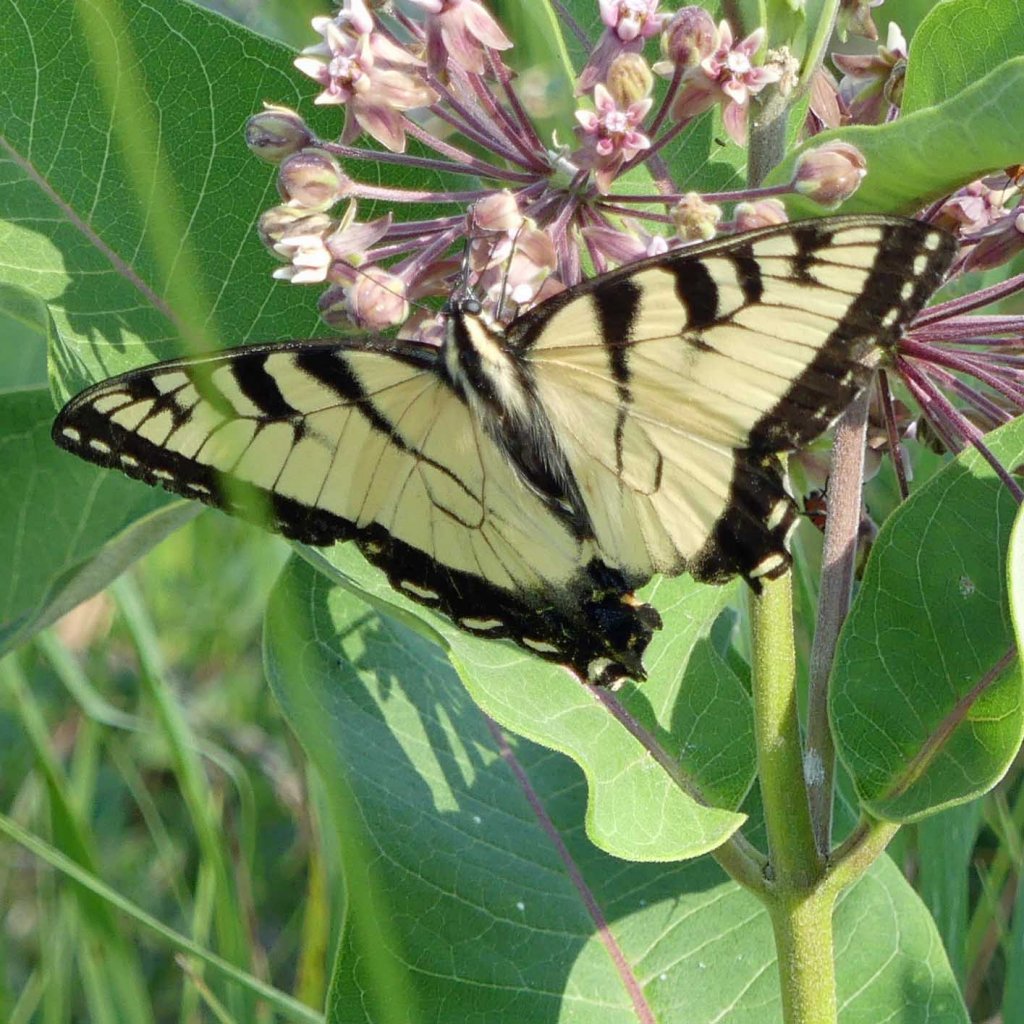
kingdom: Animalia
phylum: Arthropoda
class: Insecta
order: Lepidoptera
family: Papilionidae
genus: Pterourus
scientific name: Pterourus glaucus
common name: Eastern Tiger Swallowtail
